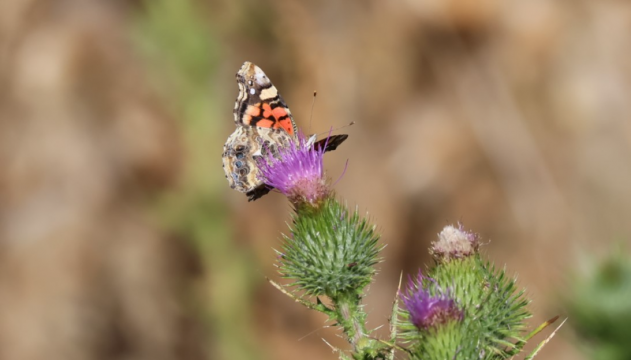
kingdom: Animalia
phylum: Arthropoda
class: Insecta
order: Lepidoptera
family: Nymphalidae
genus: Vanessa
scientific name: Vanessa annabella
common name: West Coast Lady
